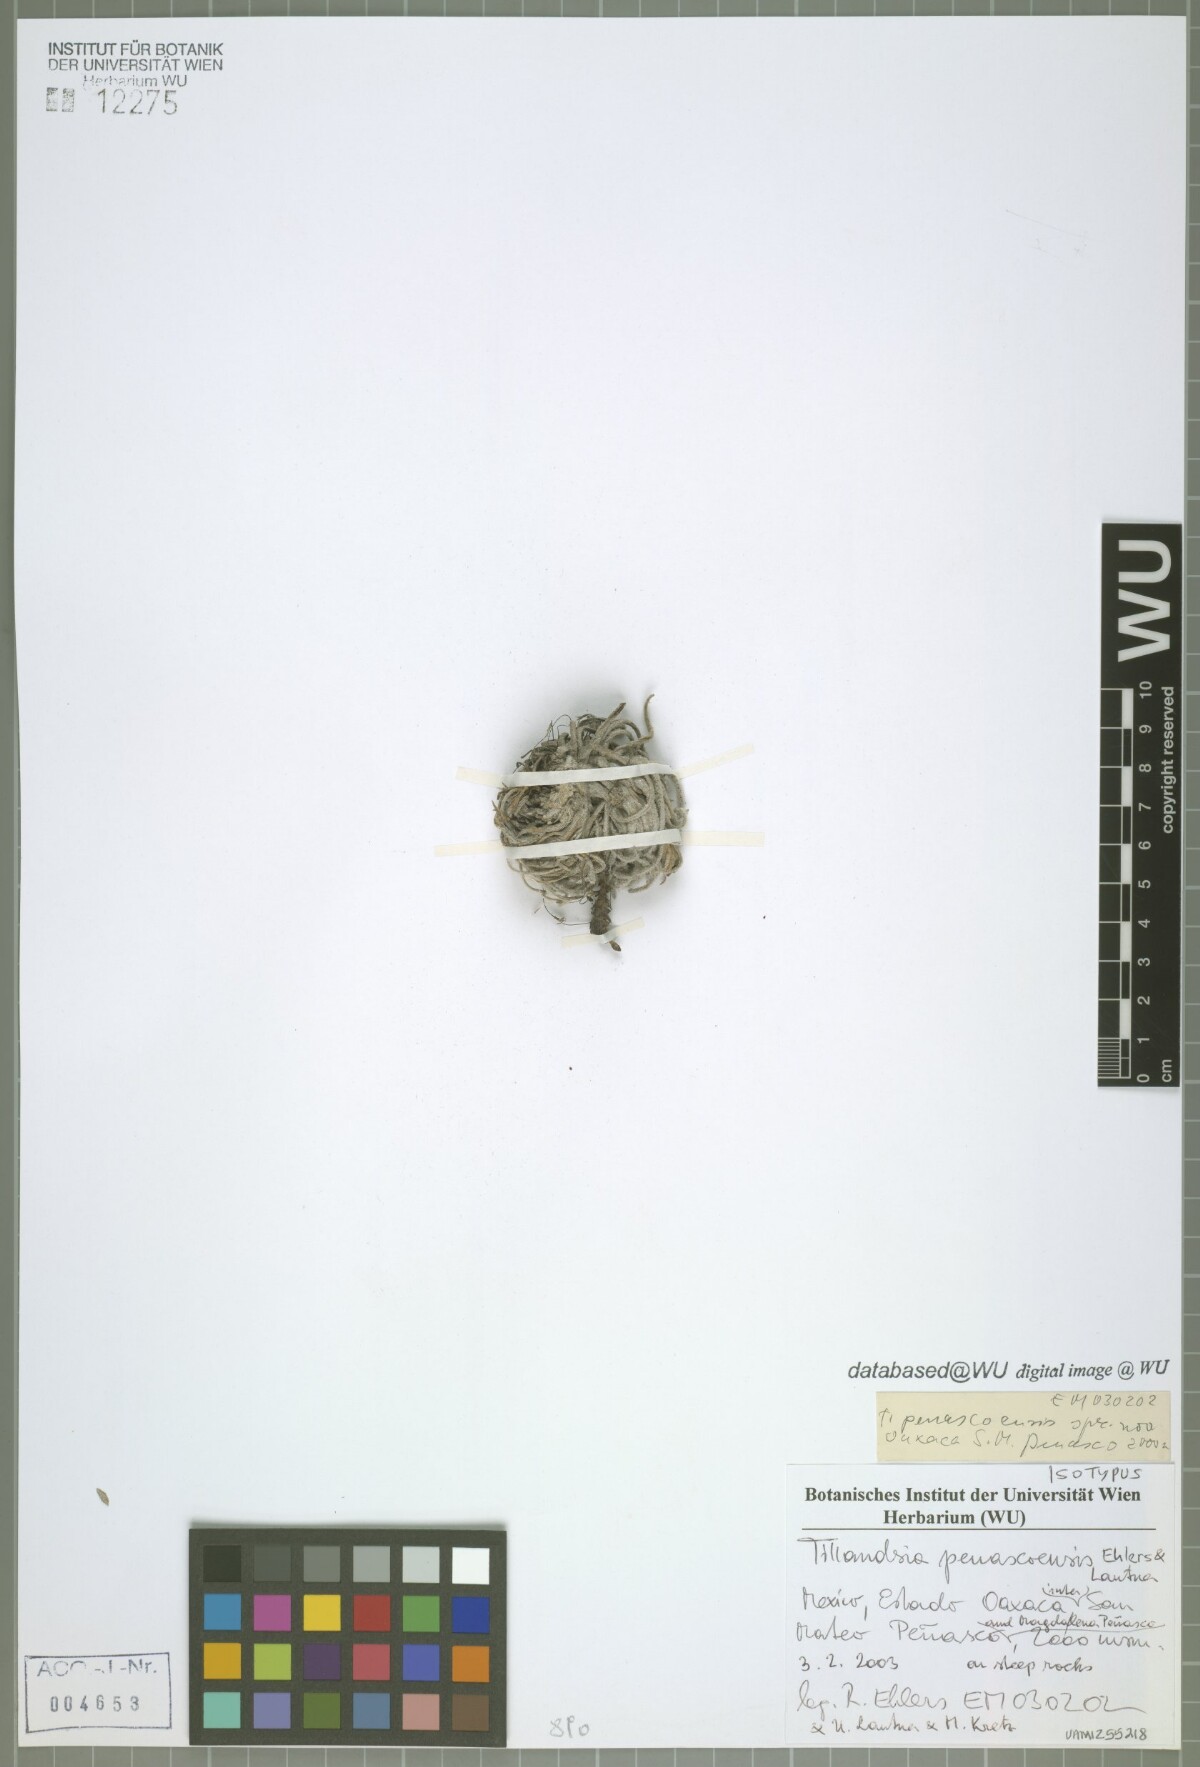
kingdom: Plantae
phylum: Tracheophyta
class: Liliopsida
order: Poales
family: Bromeliaceae
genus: Tillandsia
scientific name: Tillandsia penascoensis
